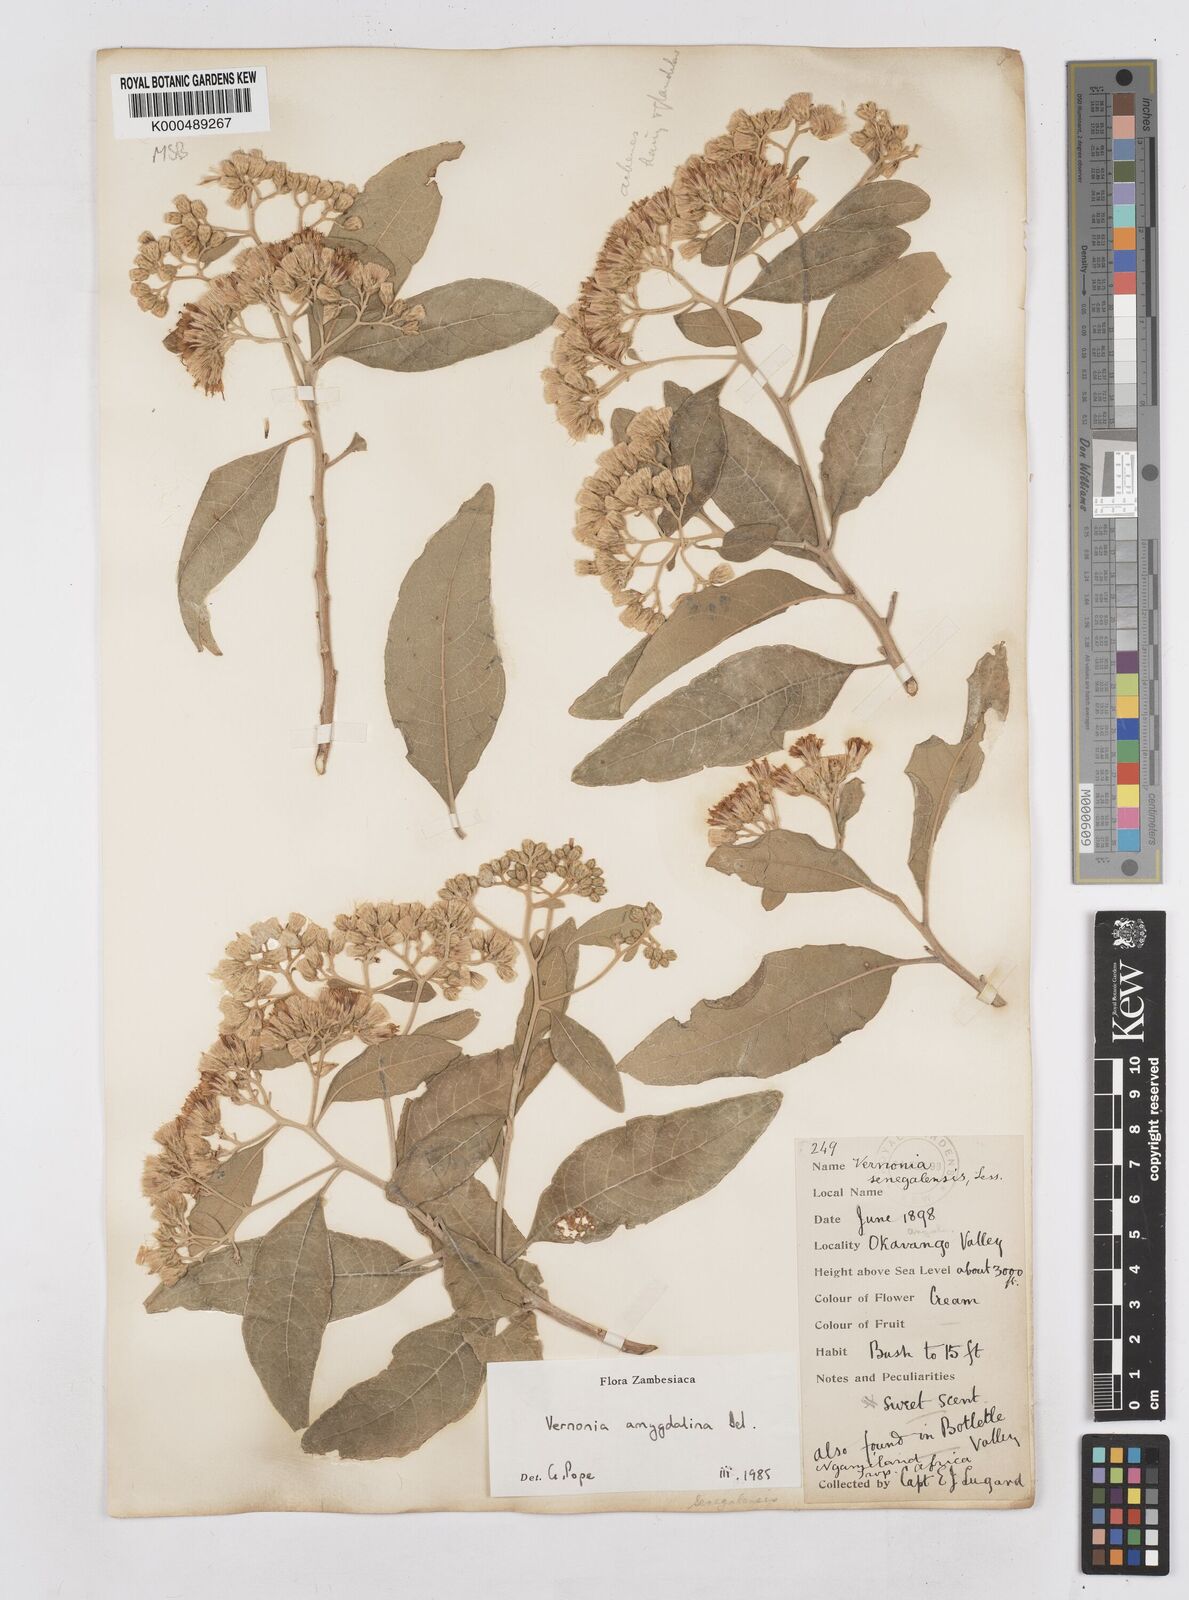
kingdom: Plantae
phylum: Tracheophyta
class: Magnoliopsida
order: Asterales
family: Asteraceae
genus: Gymnanthemum
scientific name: Gymnanthemum amygdalinum
